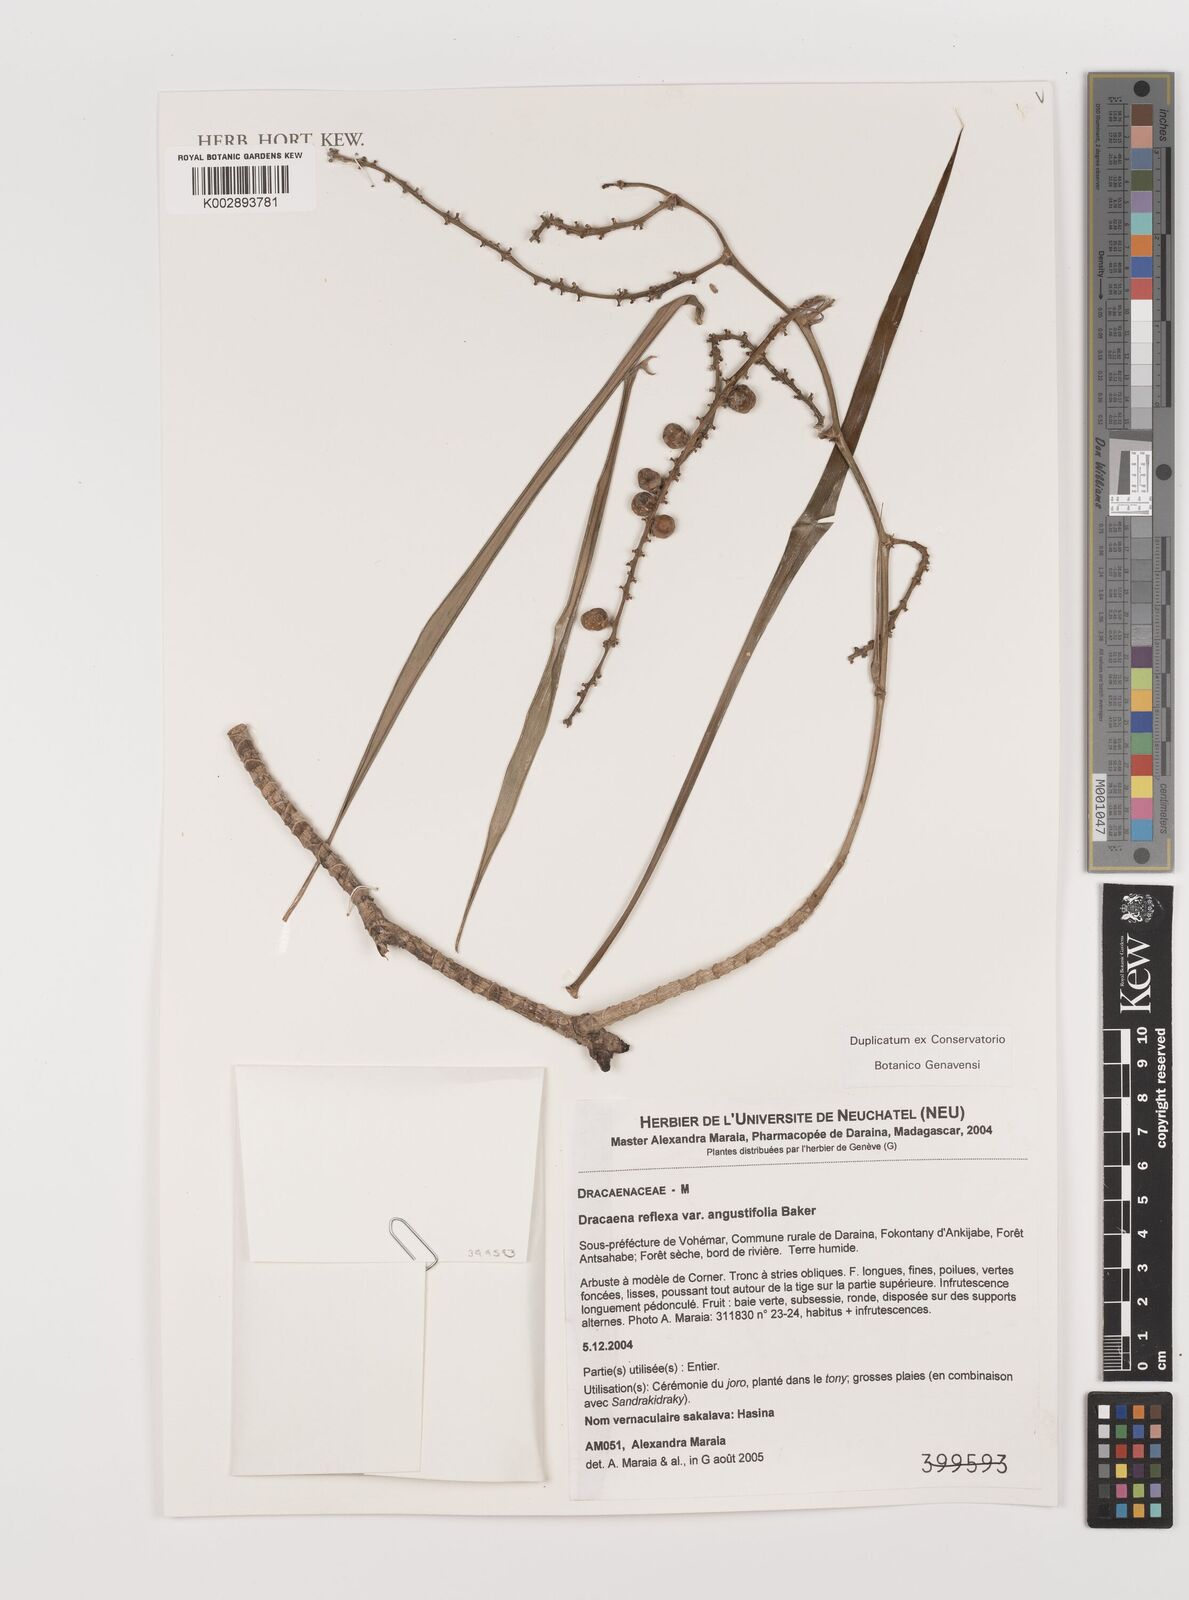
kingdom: Plantae
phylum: Tracheophyta
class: Liliopsida
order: Asparagales
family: Asparagaceae
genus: Dracaena
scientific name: Dracaena reflexa
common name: Song-of-india
